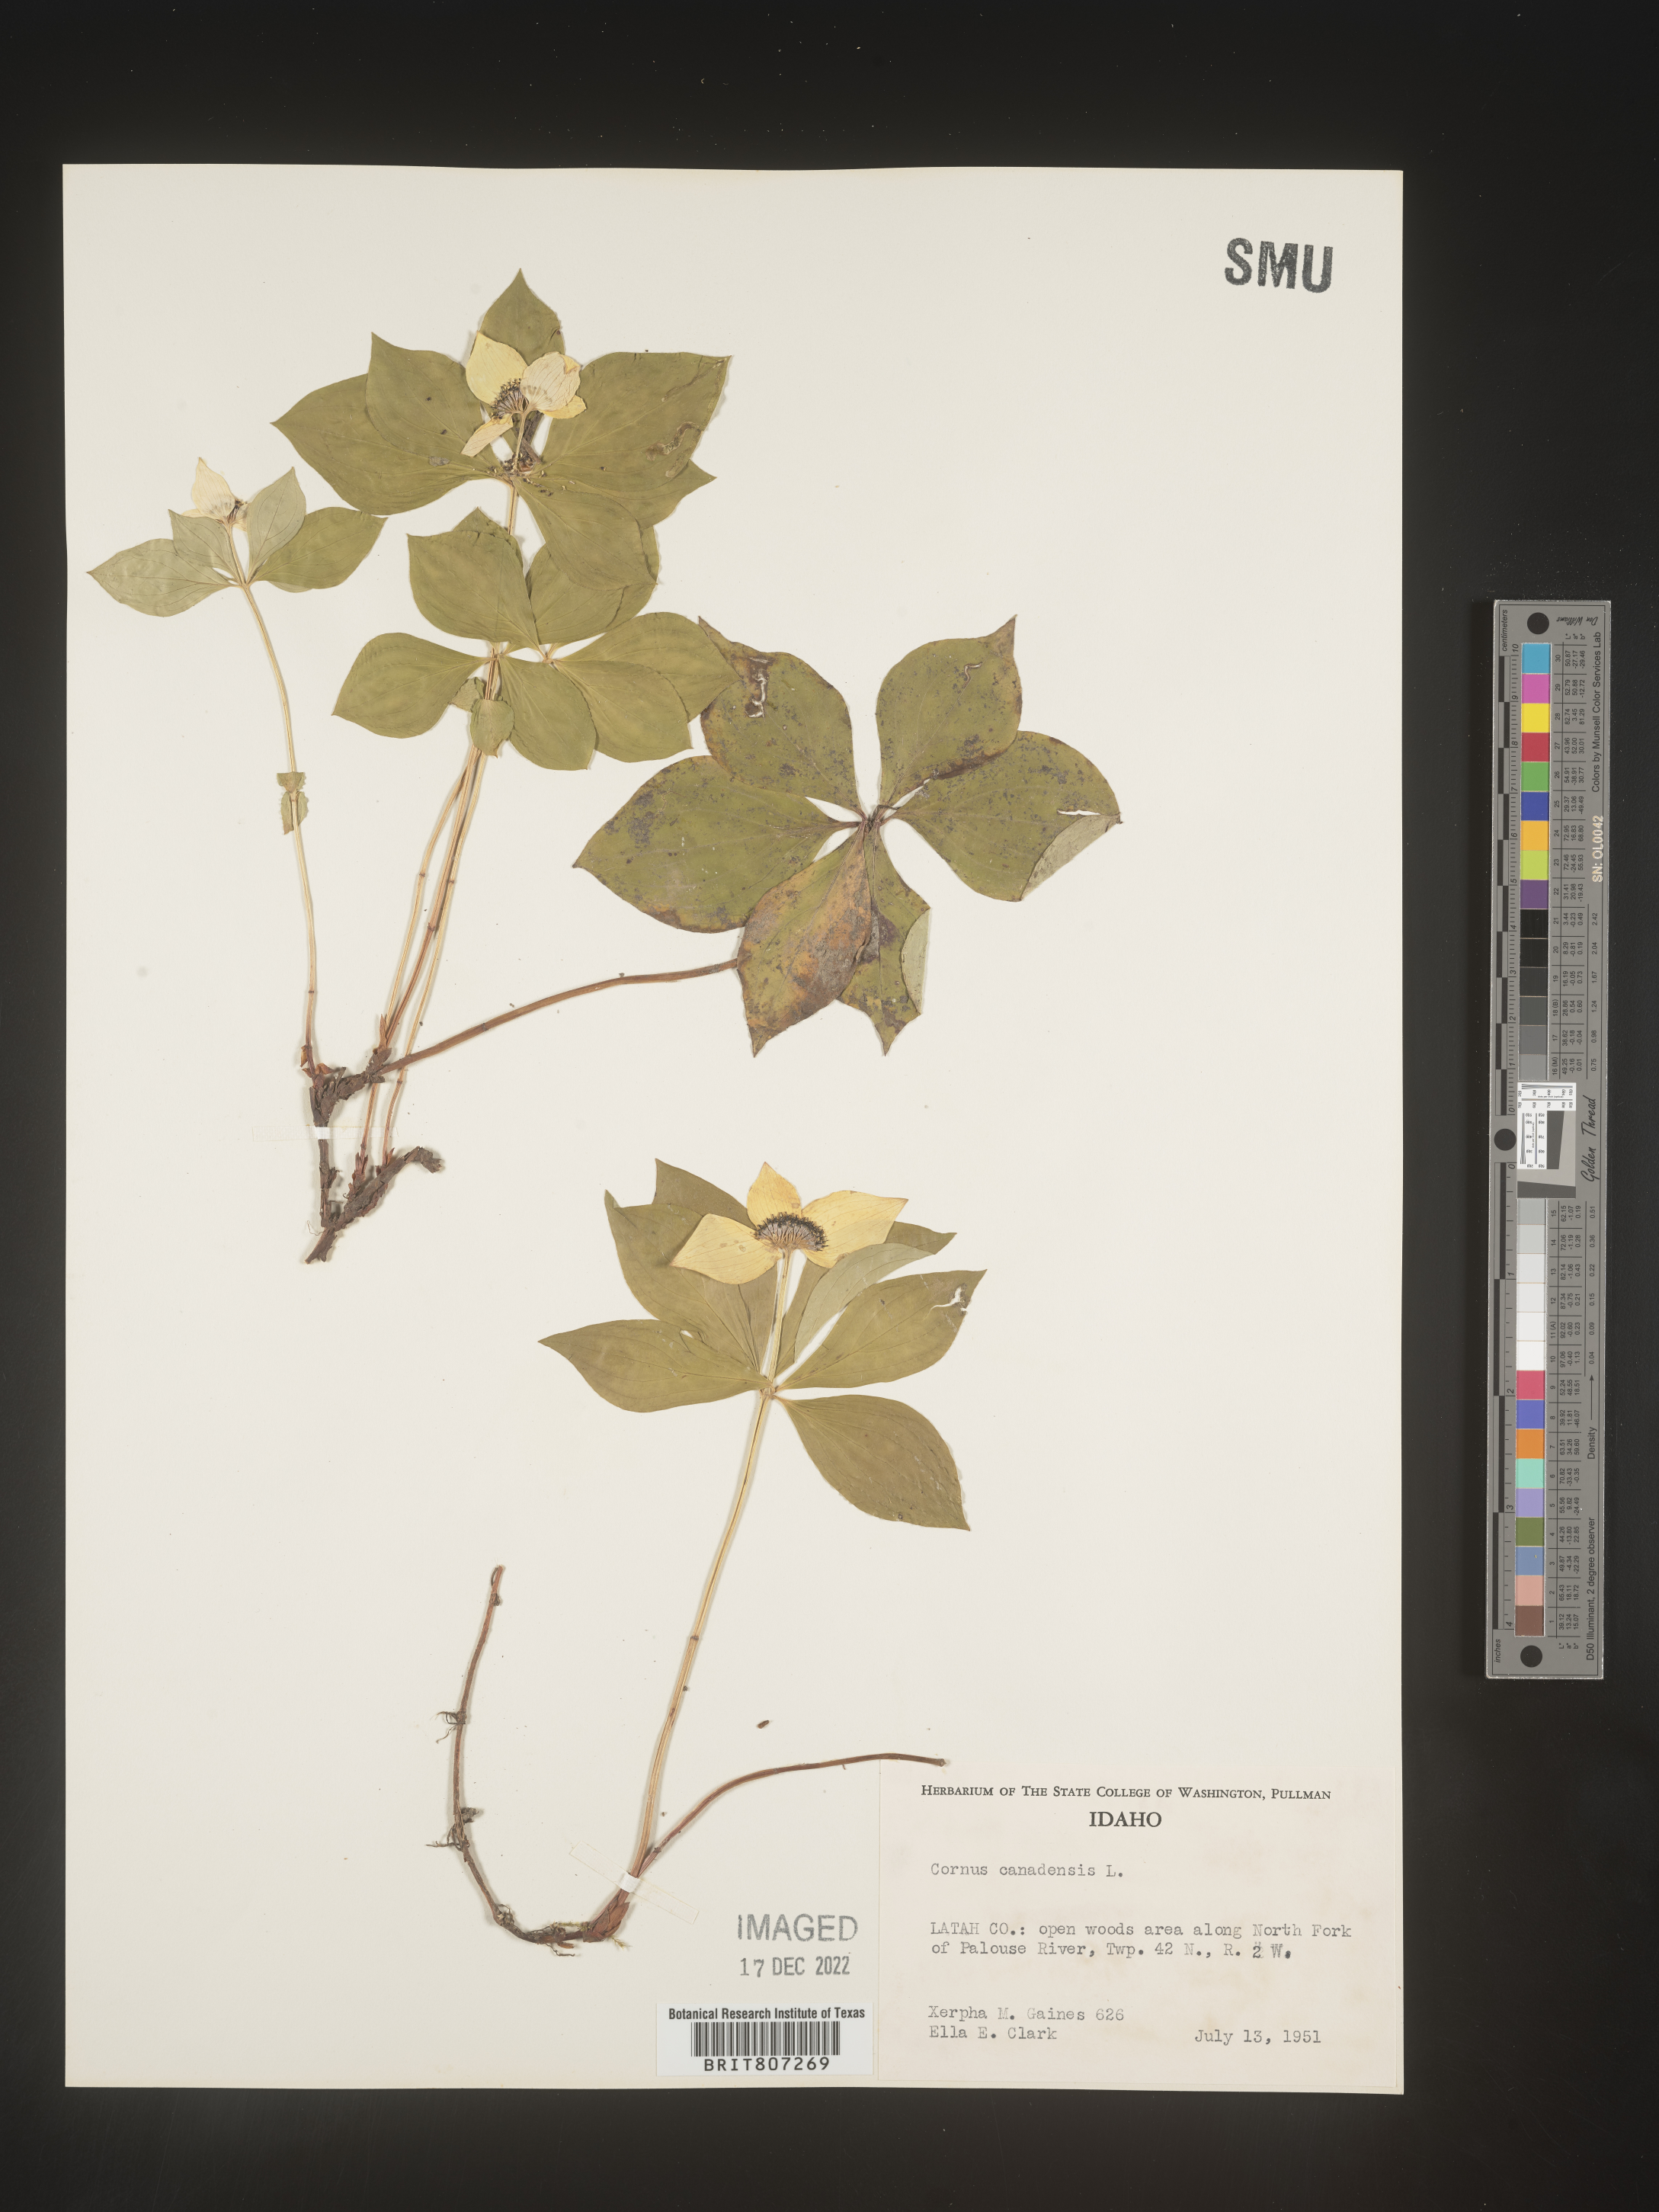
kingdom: Plantae
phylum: Tracheophyta
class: Magnoliopsida
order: Cornales
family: Cornaceae
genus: Cornus
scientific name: Cornus canadensis
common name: Creeping dogwood
